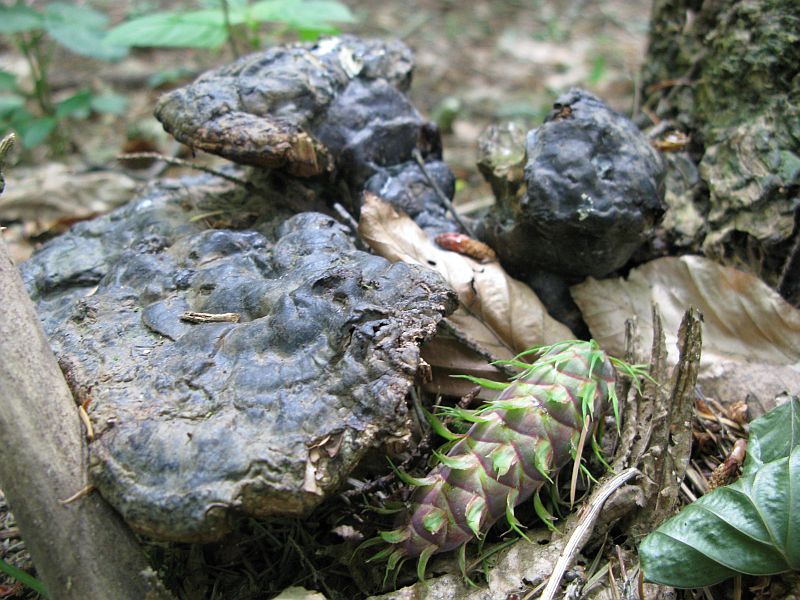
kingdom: Fungi
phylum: Basidiomycota
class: Agaricomycetes
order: Polyporales
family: Polyporaceae
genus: Ganoderma
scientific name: Ganoderma lucidum
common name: skinnende lakporesvamp
